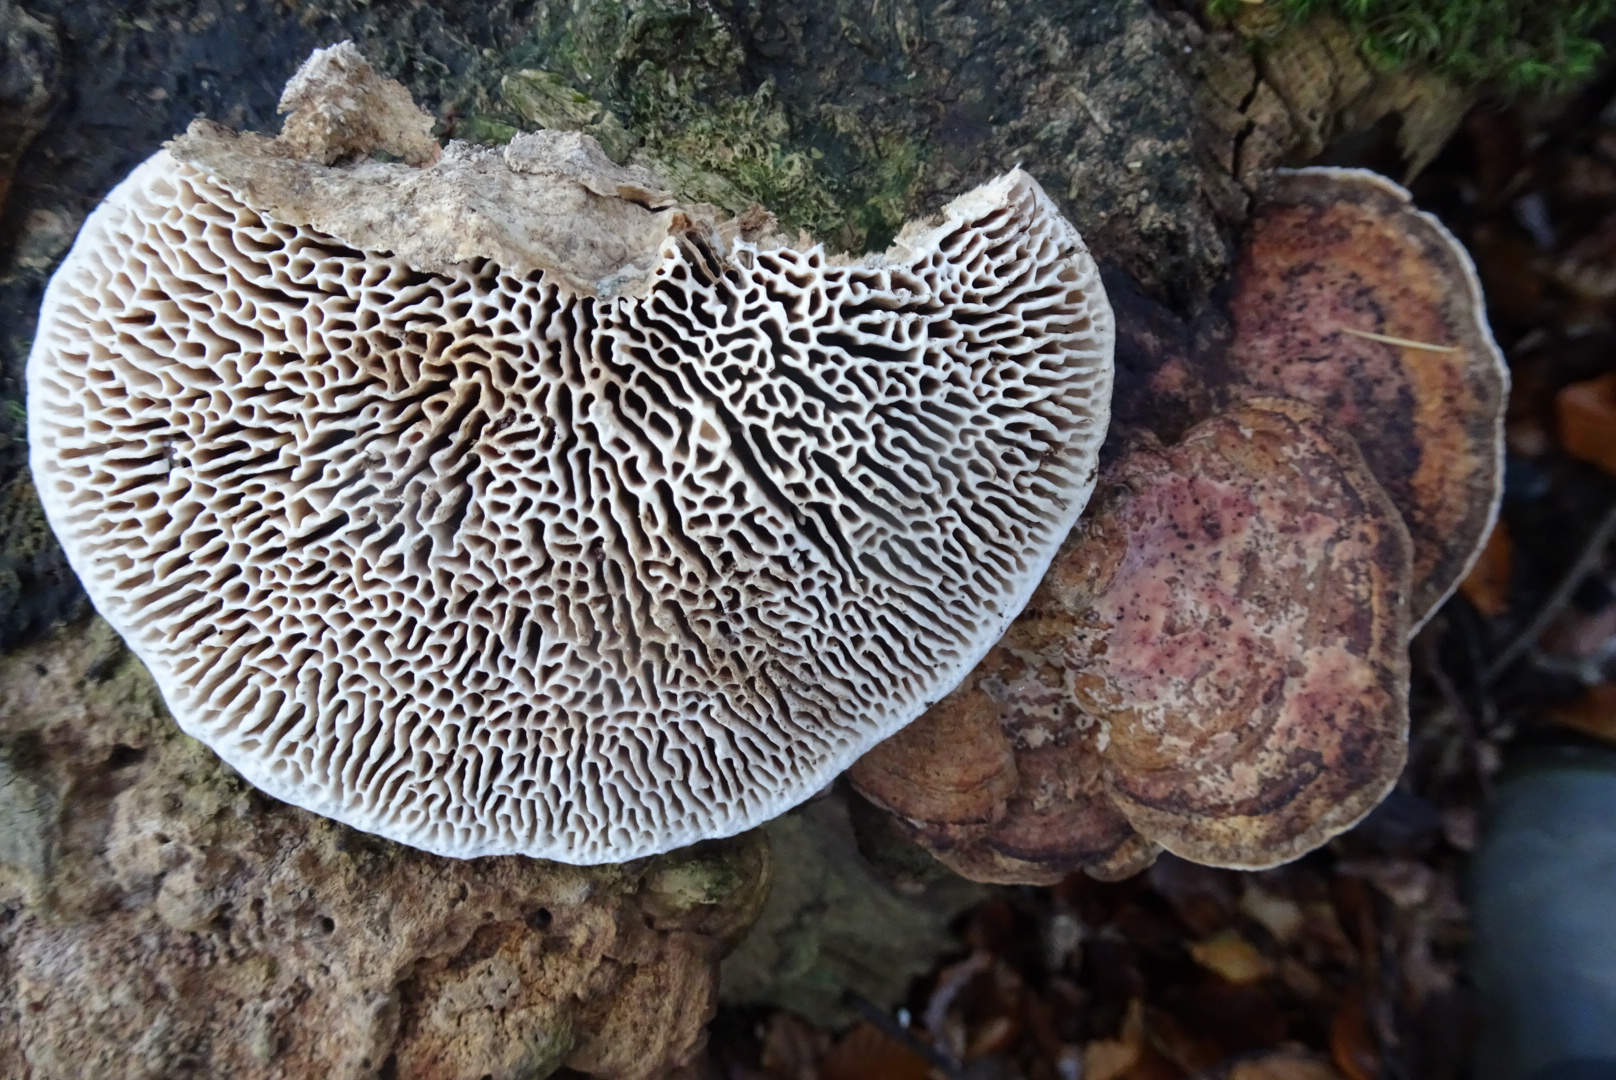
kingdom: Fungi
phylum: Basidiomycota
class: Agaricomycetes
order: Polyporales
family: Fomitopsidaceae
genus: Daedalea
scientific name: Daedalea quercina
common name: ege-labyrintsvamp
